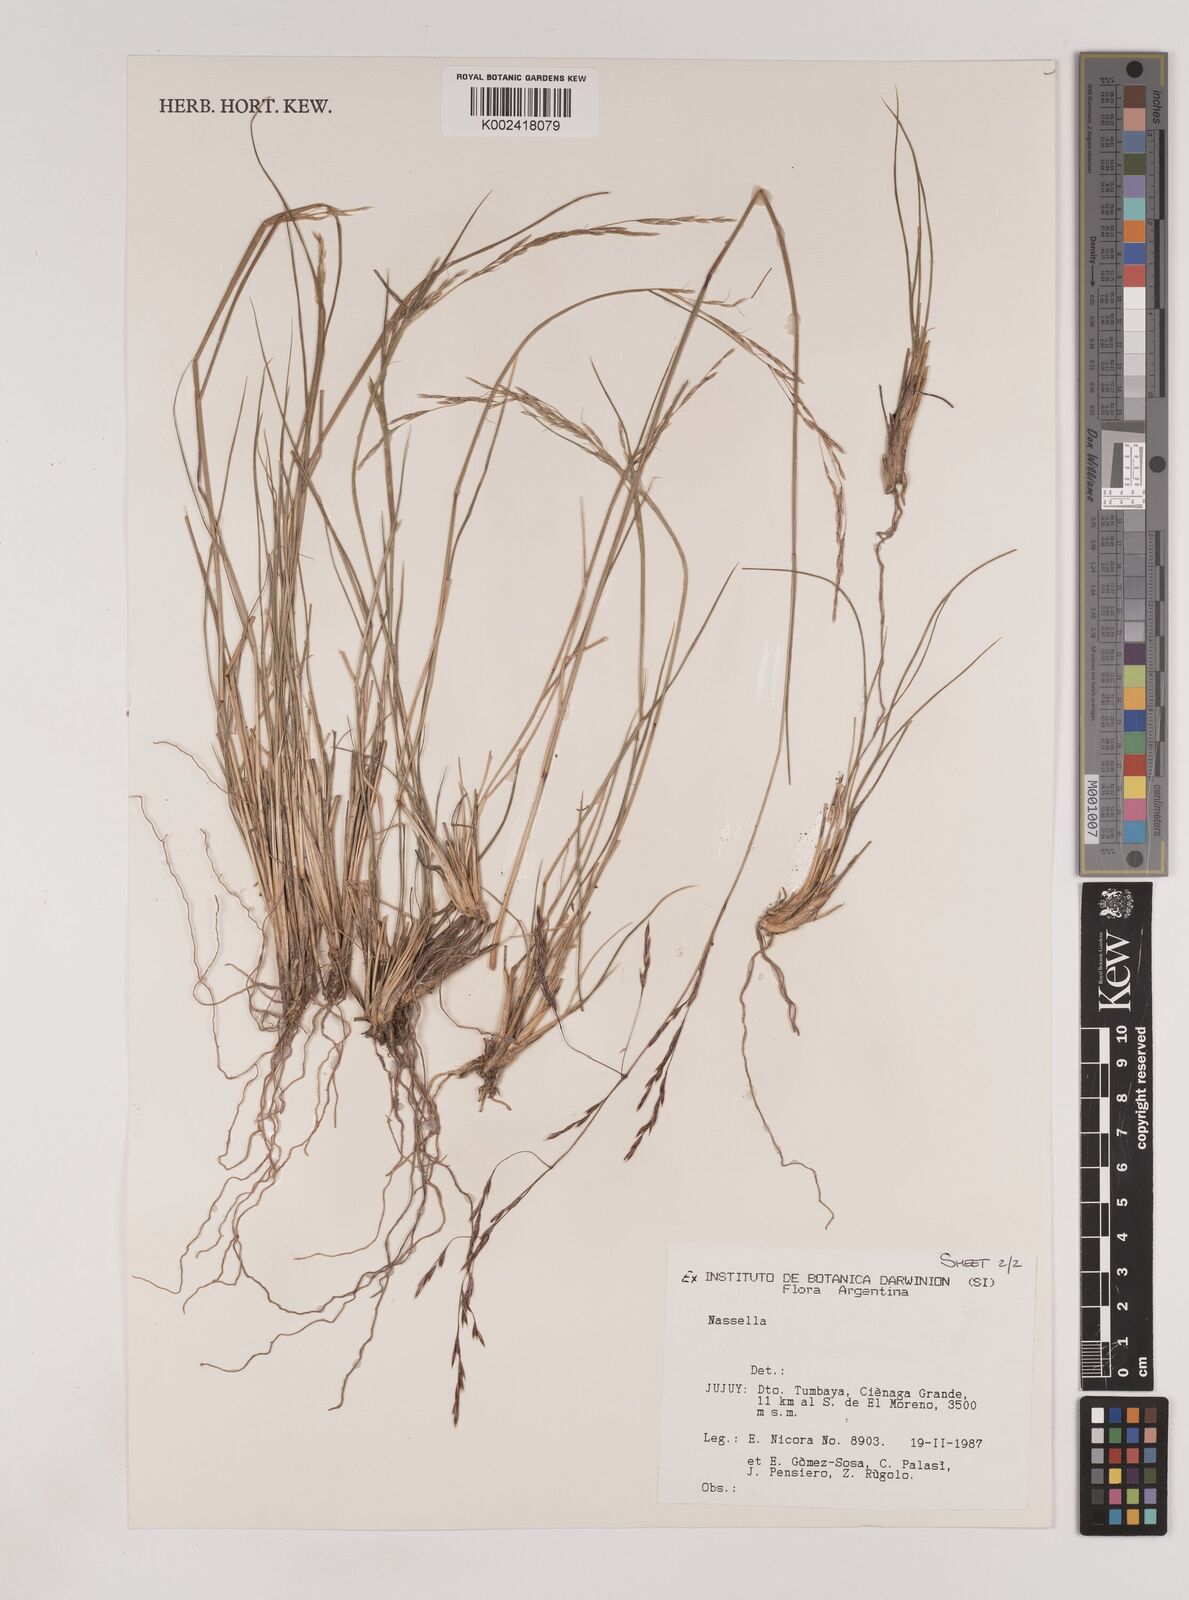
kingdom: Plantae
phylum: Tracheophyta
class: Liliopsida
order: Poales
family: Poaceae
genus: Nassella
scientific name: Nassella
